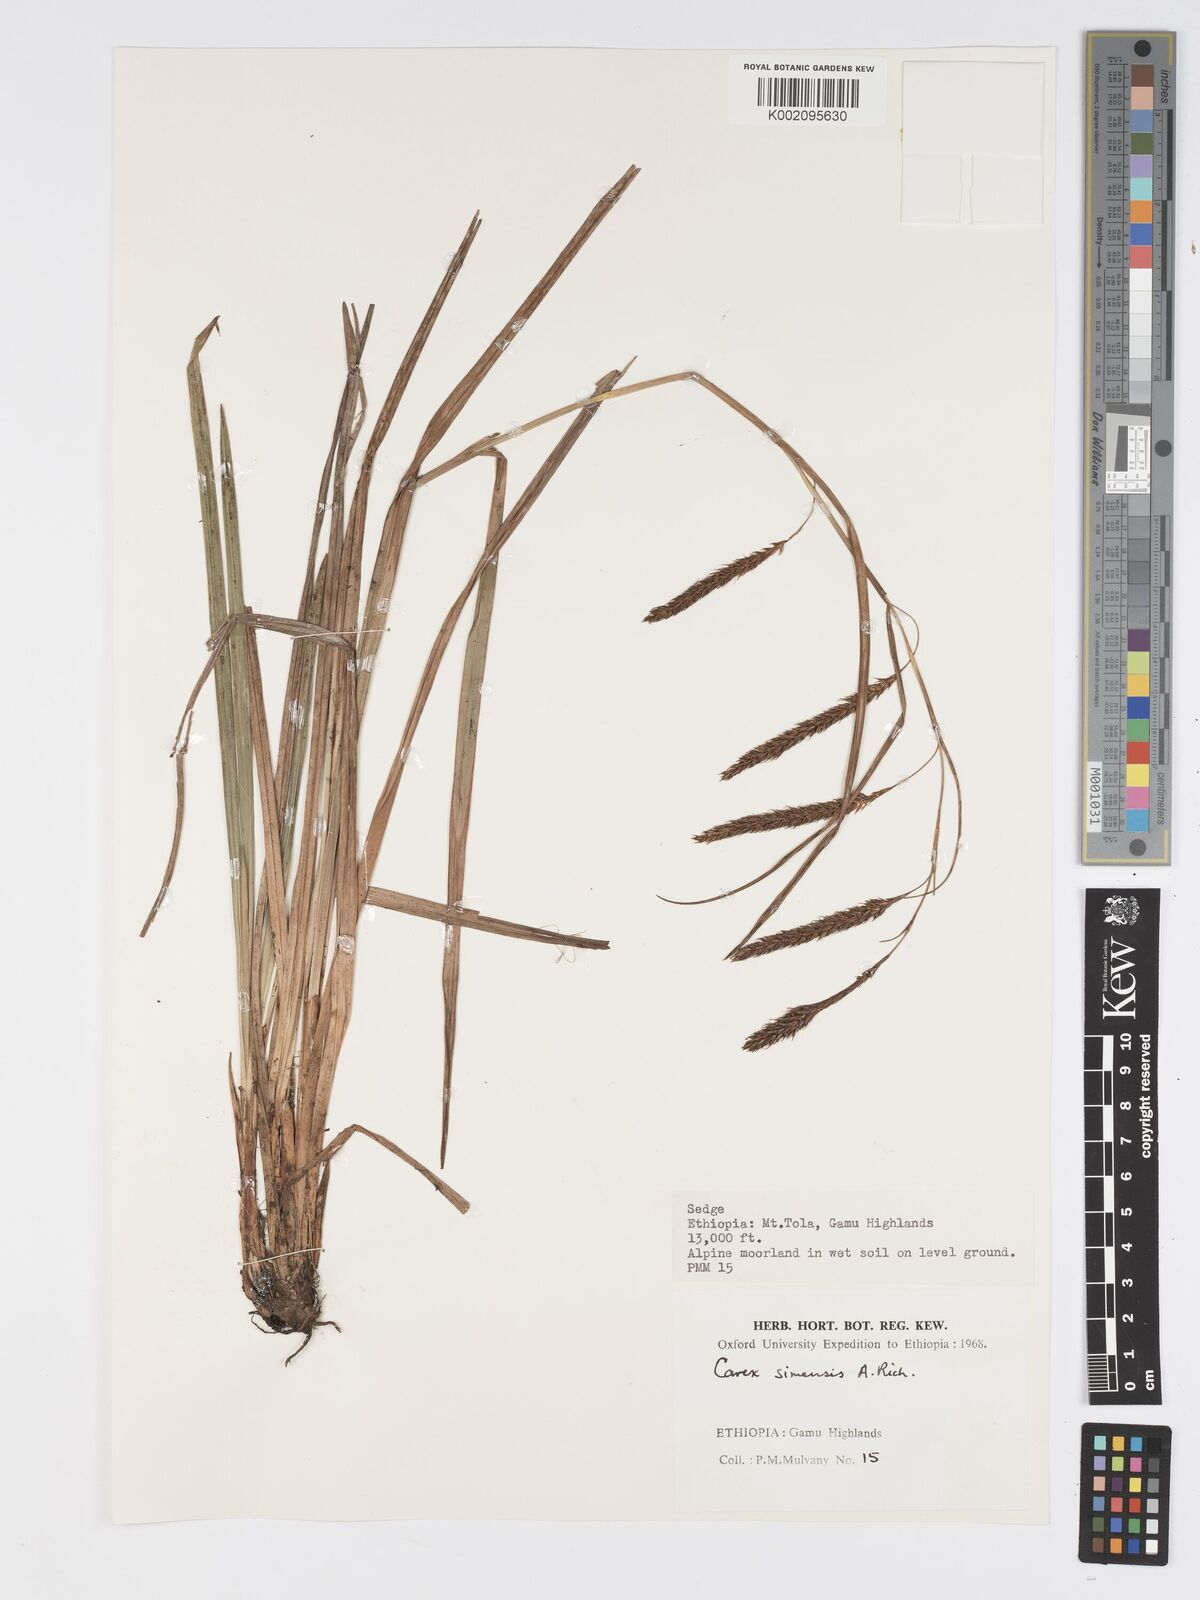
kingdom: Plantae
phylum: Tracheophyta
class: Liliopsida
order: Poales
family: Cyperaceae
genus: Carex
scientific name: Carex simensis
